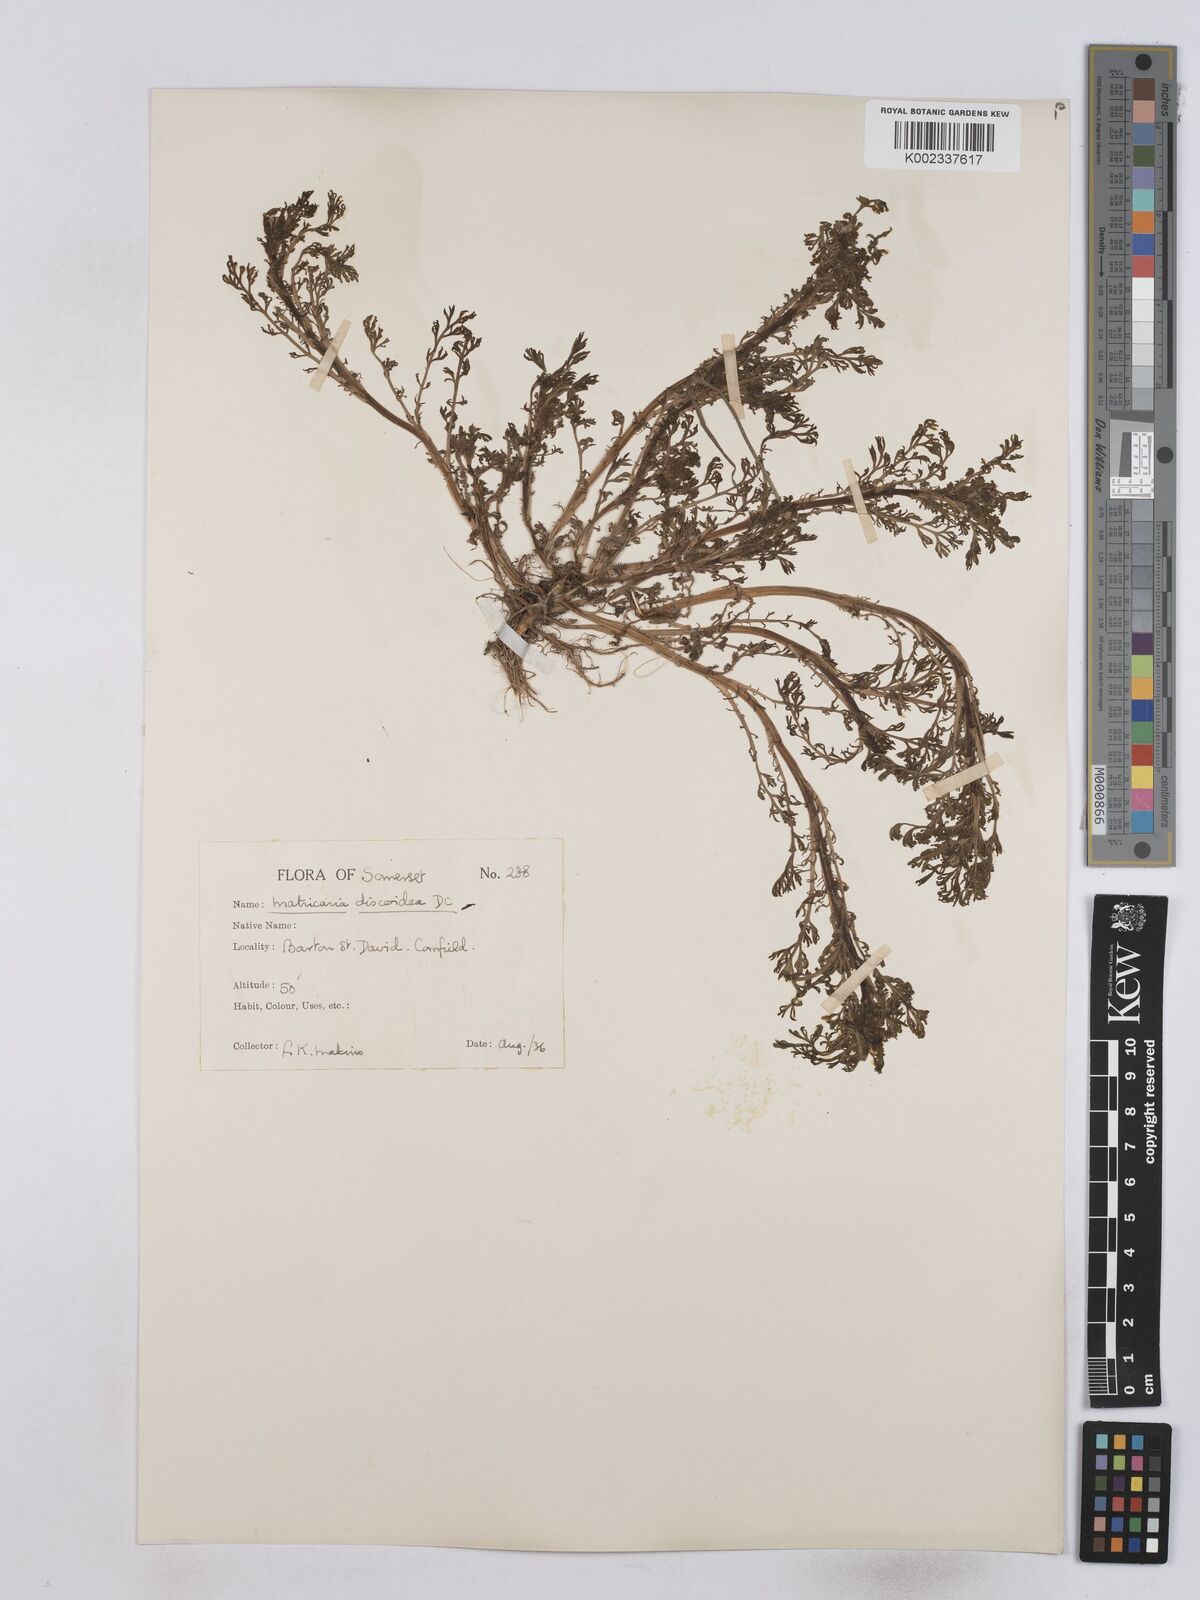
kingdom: Plantae
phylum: Tracheophyta
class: Magnoliopsida
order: Asterales
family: Asteraceae
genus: Matricaria
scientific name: Matricaria discoidea
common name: Disc mayweed
